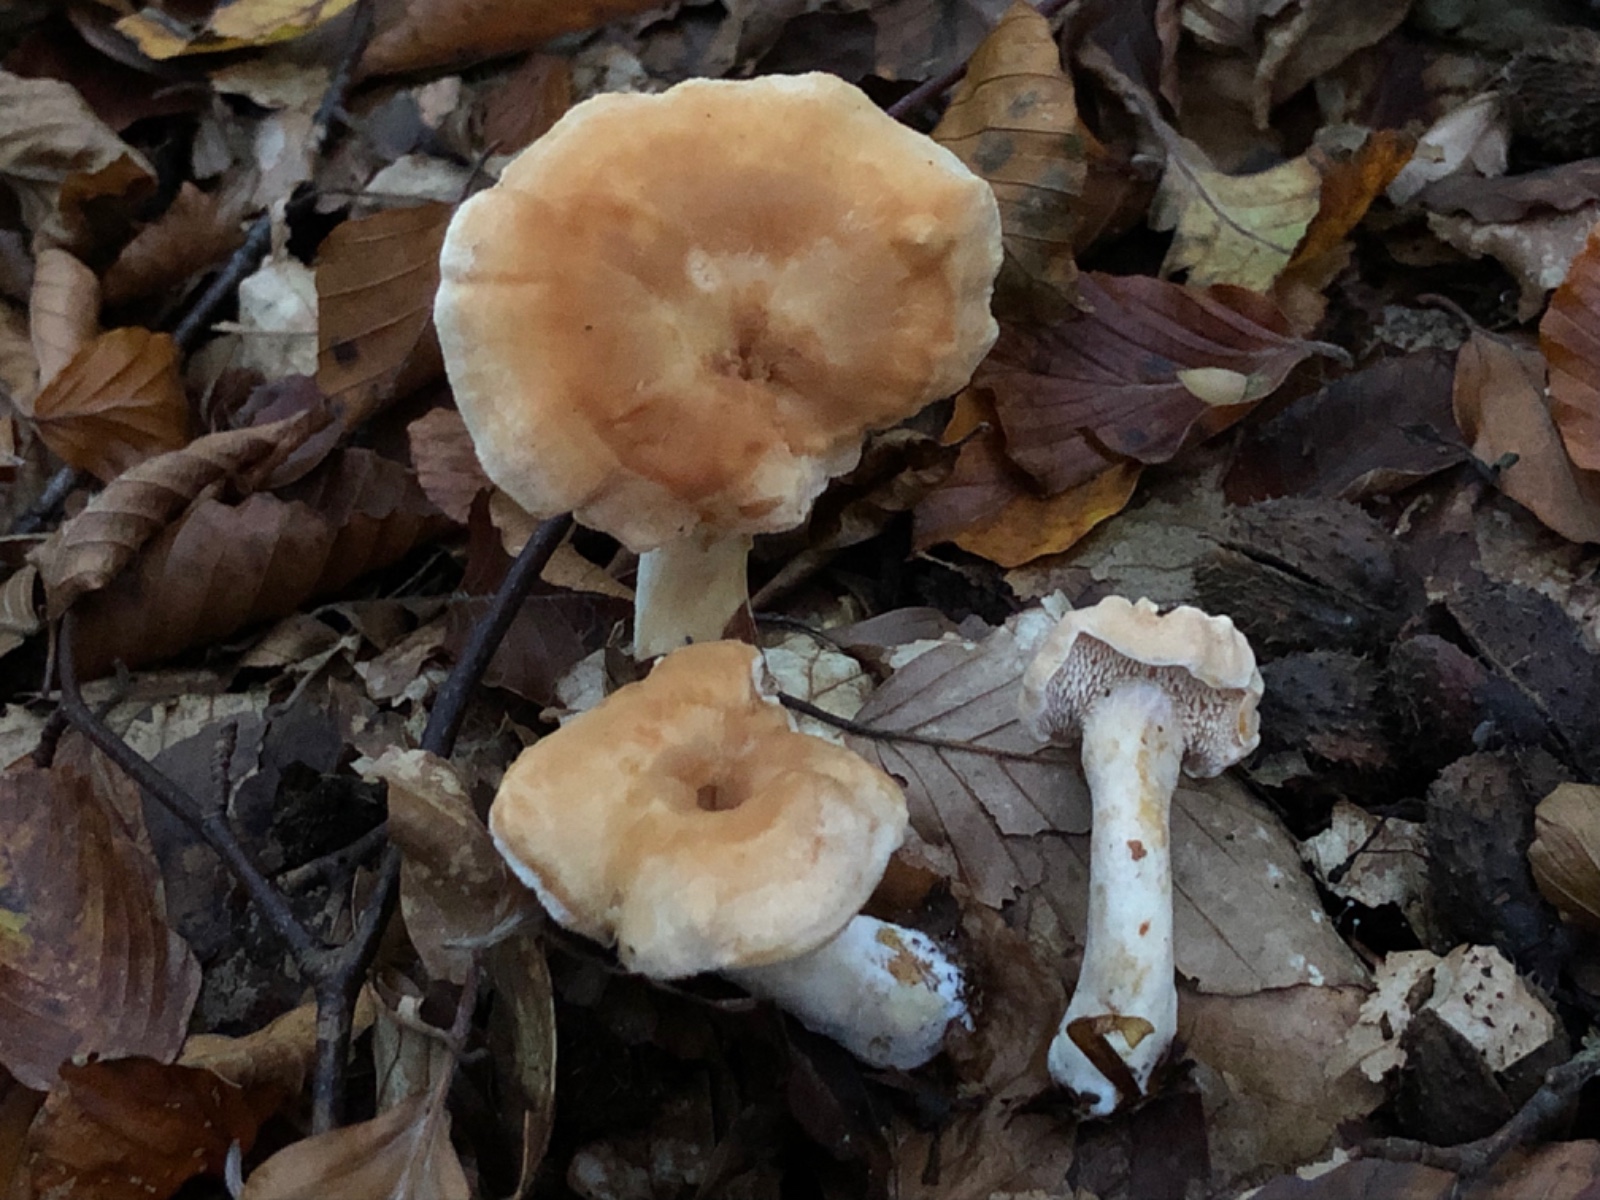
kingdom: Fungi
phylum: Basidiomycota
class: Agaricomycetes
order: Cantharellales
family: Hydnaceae
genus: Hydnum
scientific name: Hydnum umbilicatum
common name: navle-pigsvamp
